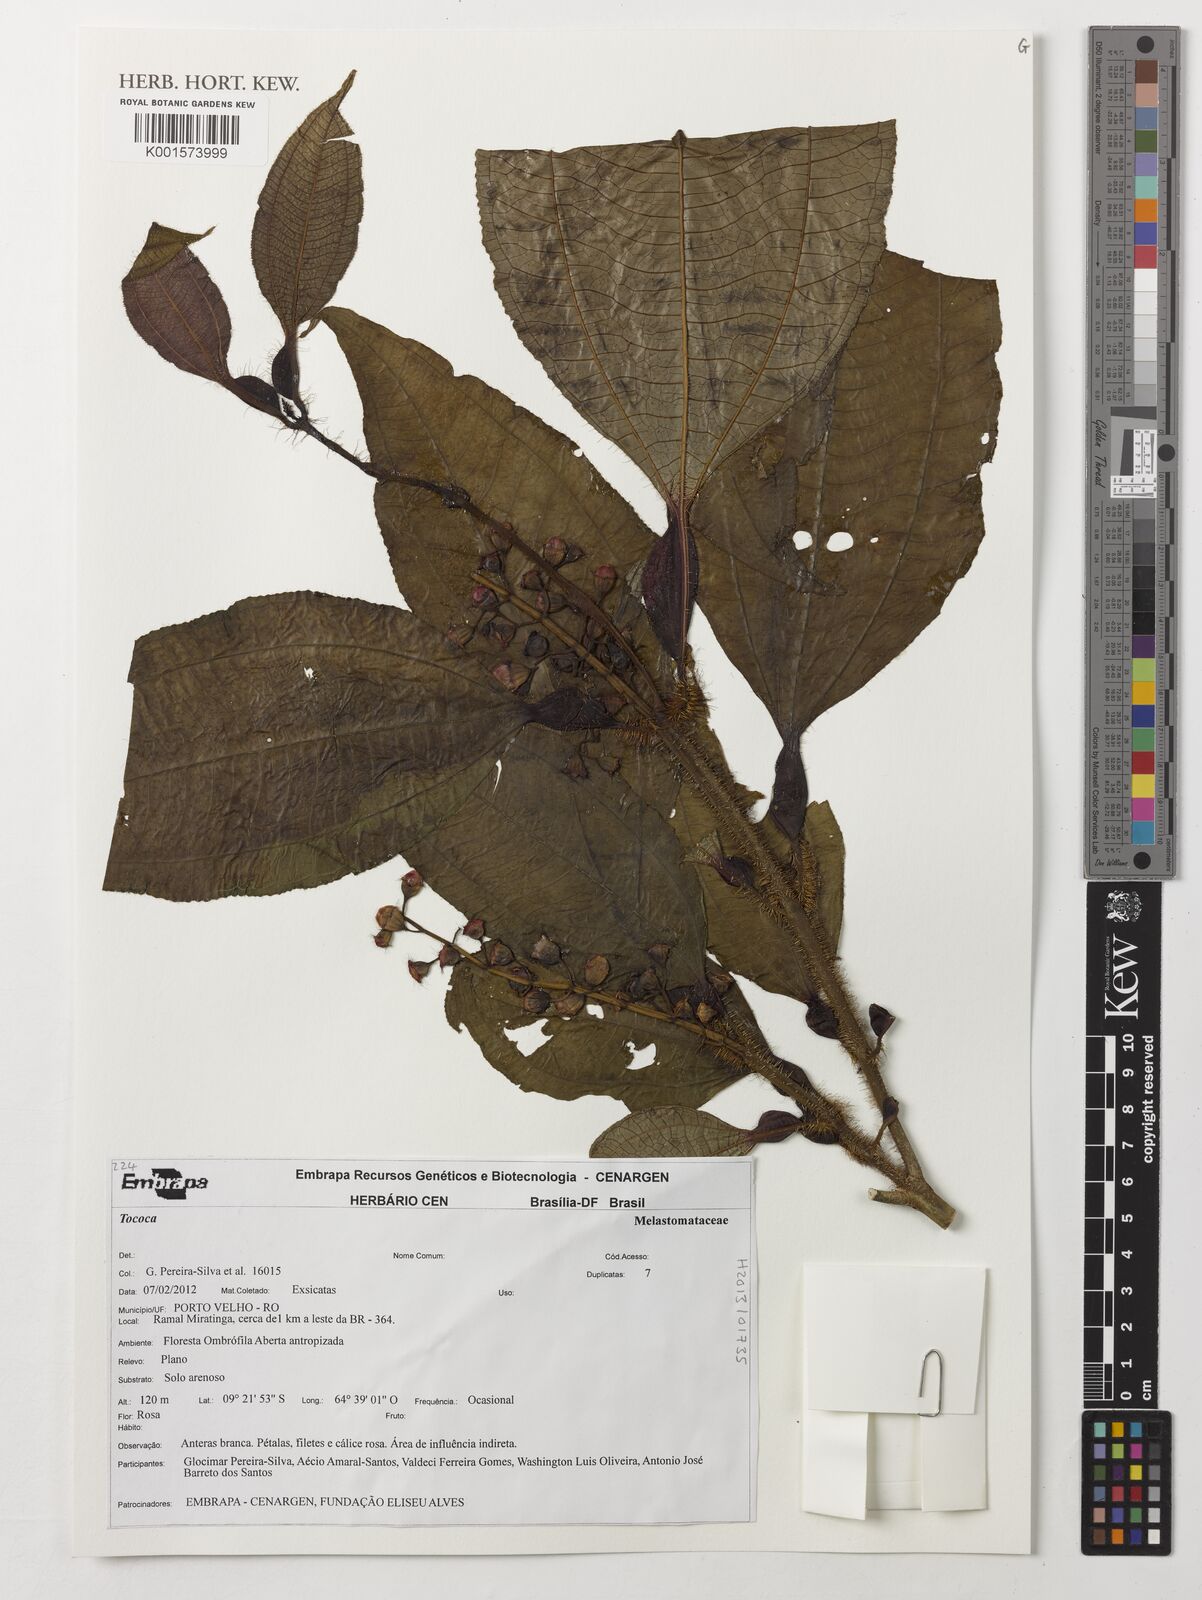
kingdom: Plantae
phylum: Tracheophyta
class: Magnoliopsida
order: Myrtales
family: Melastomataceae
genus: Miconia
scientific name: Miconia
